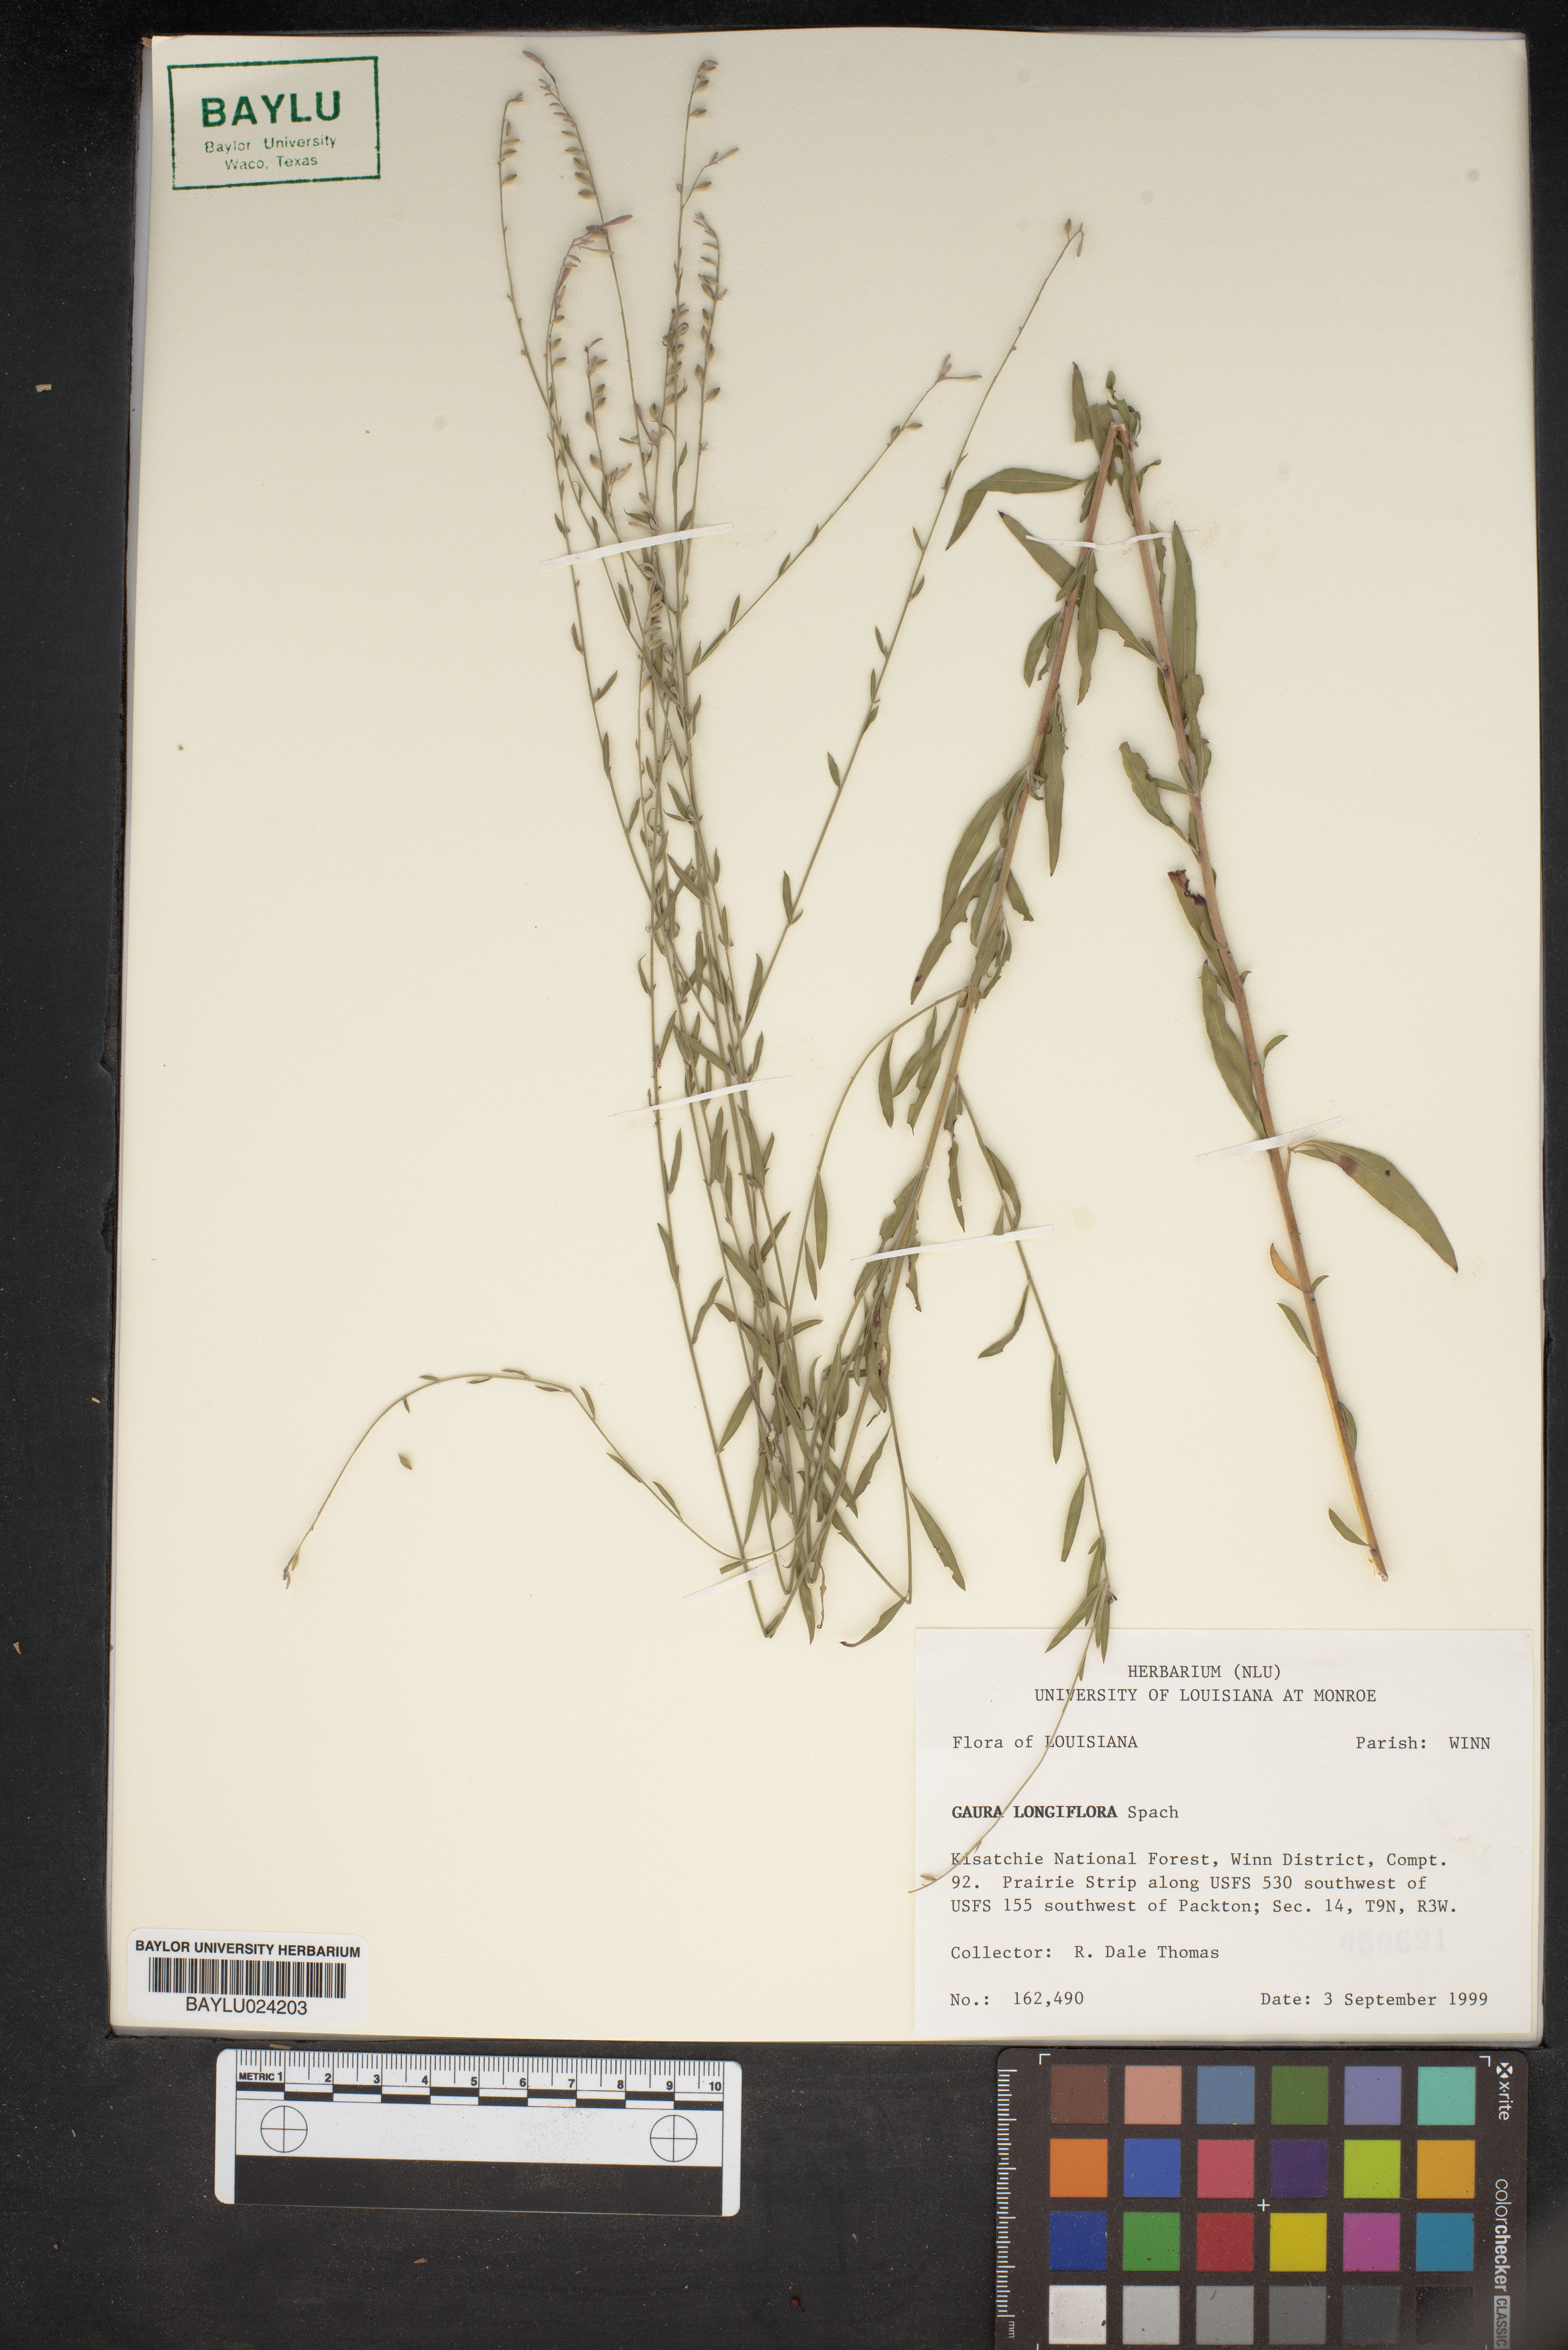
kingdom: Plantae
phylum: Tracheophyta
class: Magnoliopsida
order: Myrtales
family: Onagraceae
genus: Oenothera
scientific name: Oenothera filiformis
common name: Longflower beeblossom
